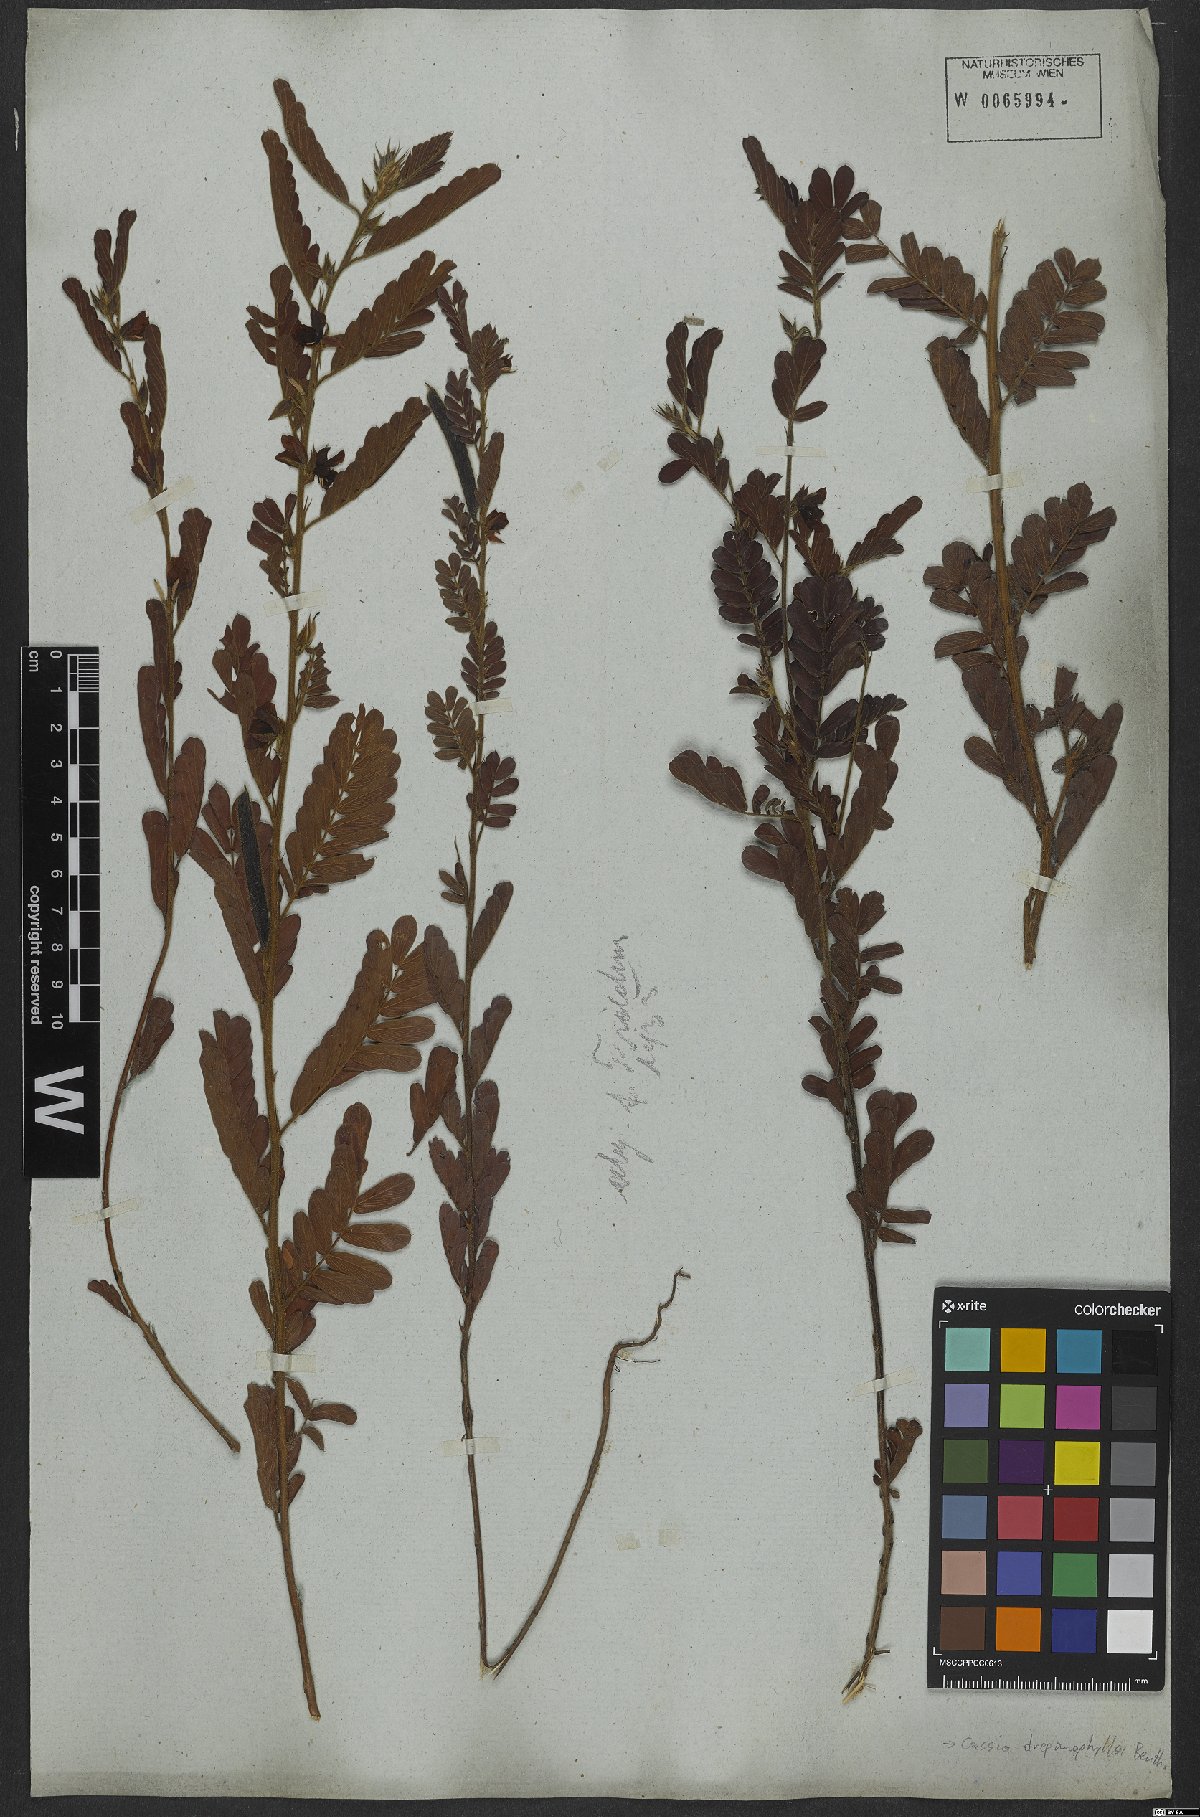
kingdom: Plantae
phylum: Tracheophyta
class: Magnoliopsida
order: Fabales
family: Fabaceae
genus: Chamaecrista
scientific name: Chamaecrista repens
